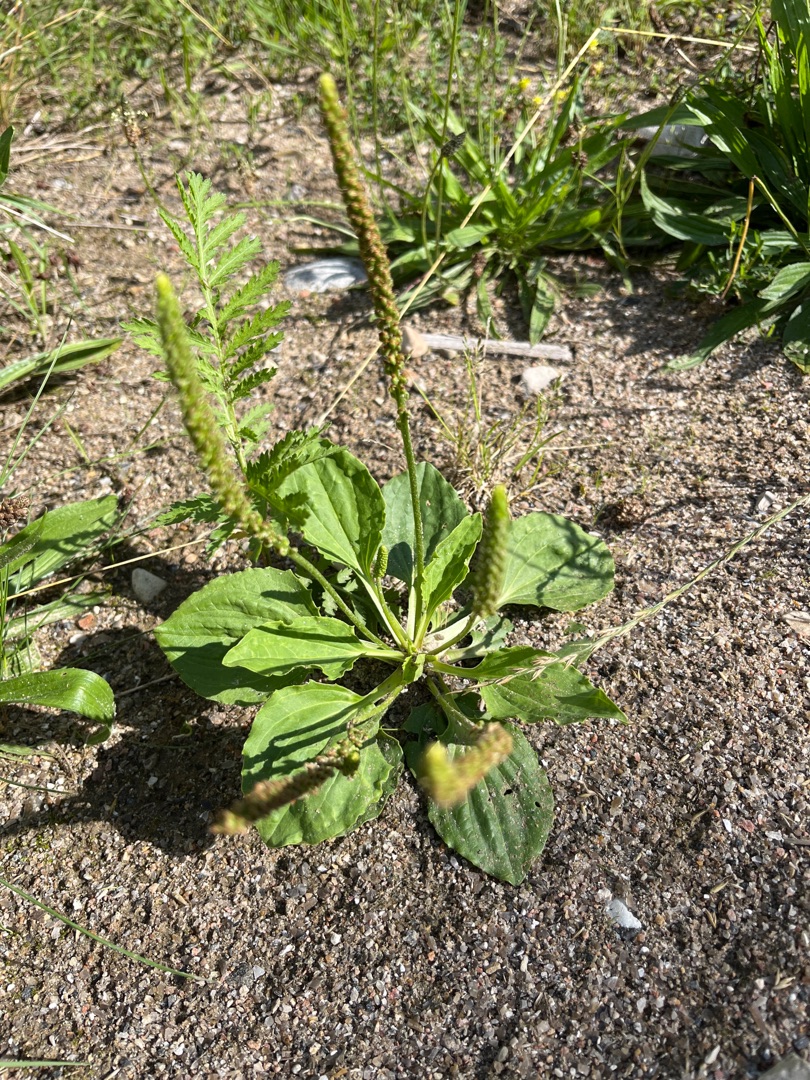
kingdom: Plantae
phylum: Tracheophyta
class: Magnoliopsida
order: Lamiales
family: Plantaginaceae
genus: Plantago
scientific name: Plantago major
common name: Glat vejbred
